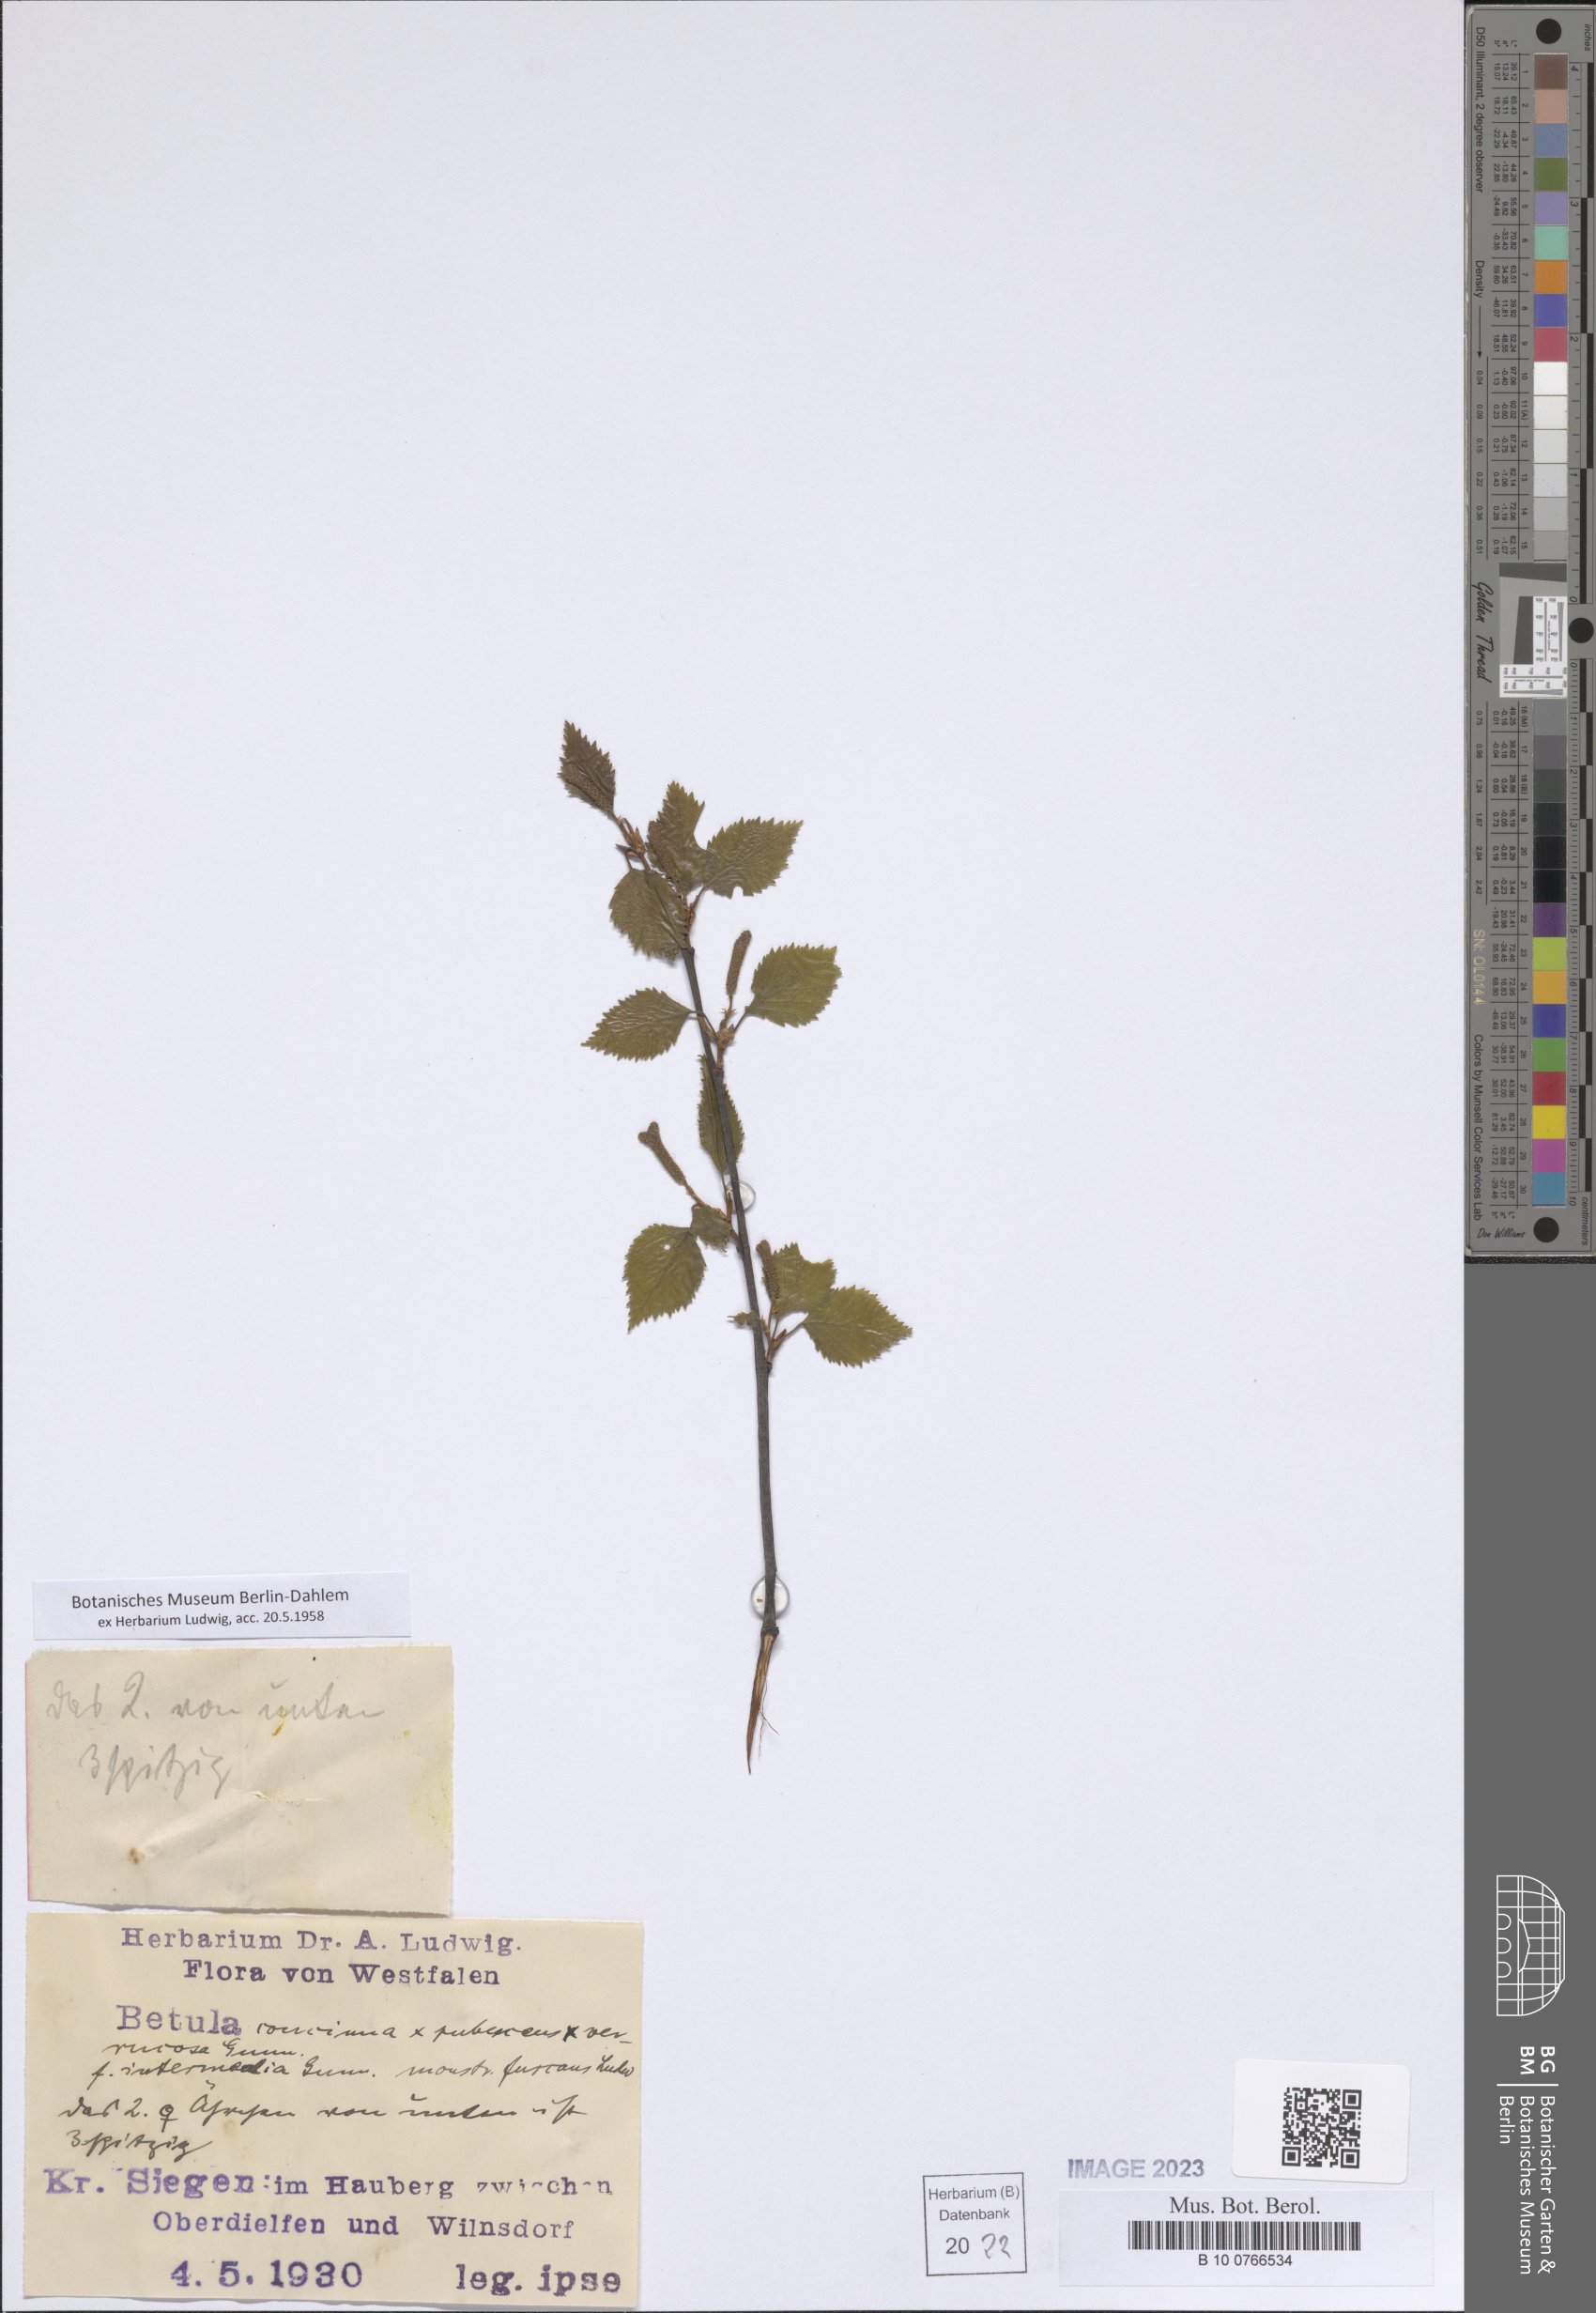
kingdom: Plantae
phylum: Tracheophyta
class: Magnoliopsida
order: Fagales
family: Betulaceae
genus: Betula
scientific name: Betula
